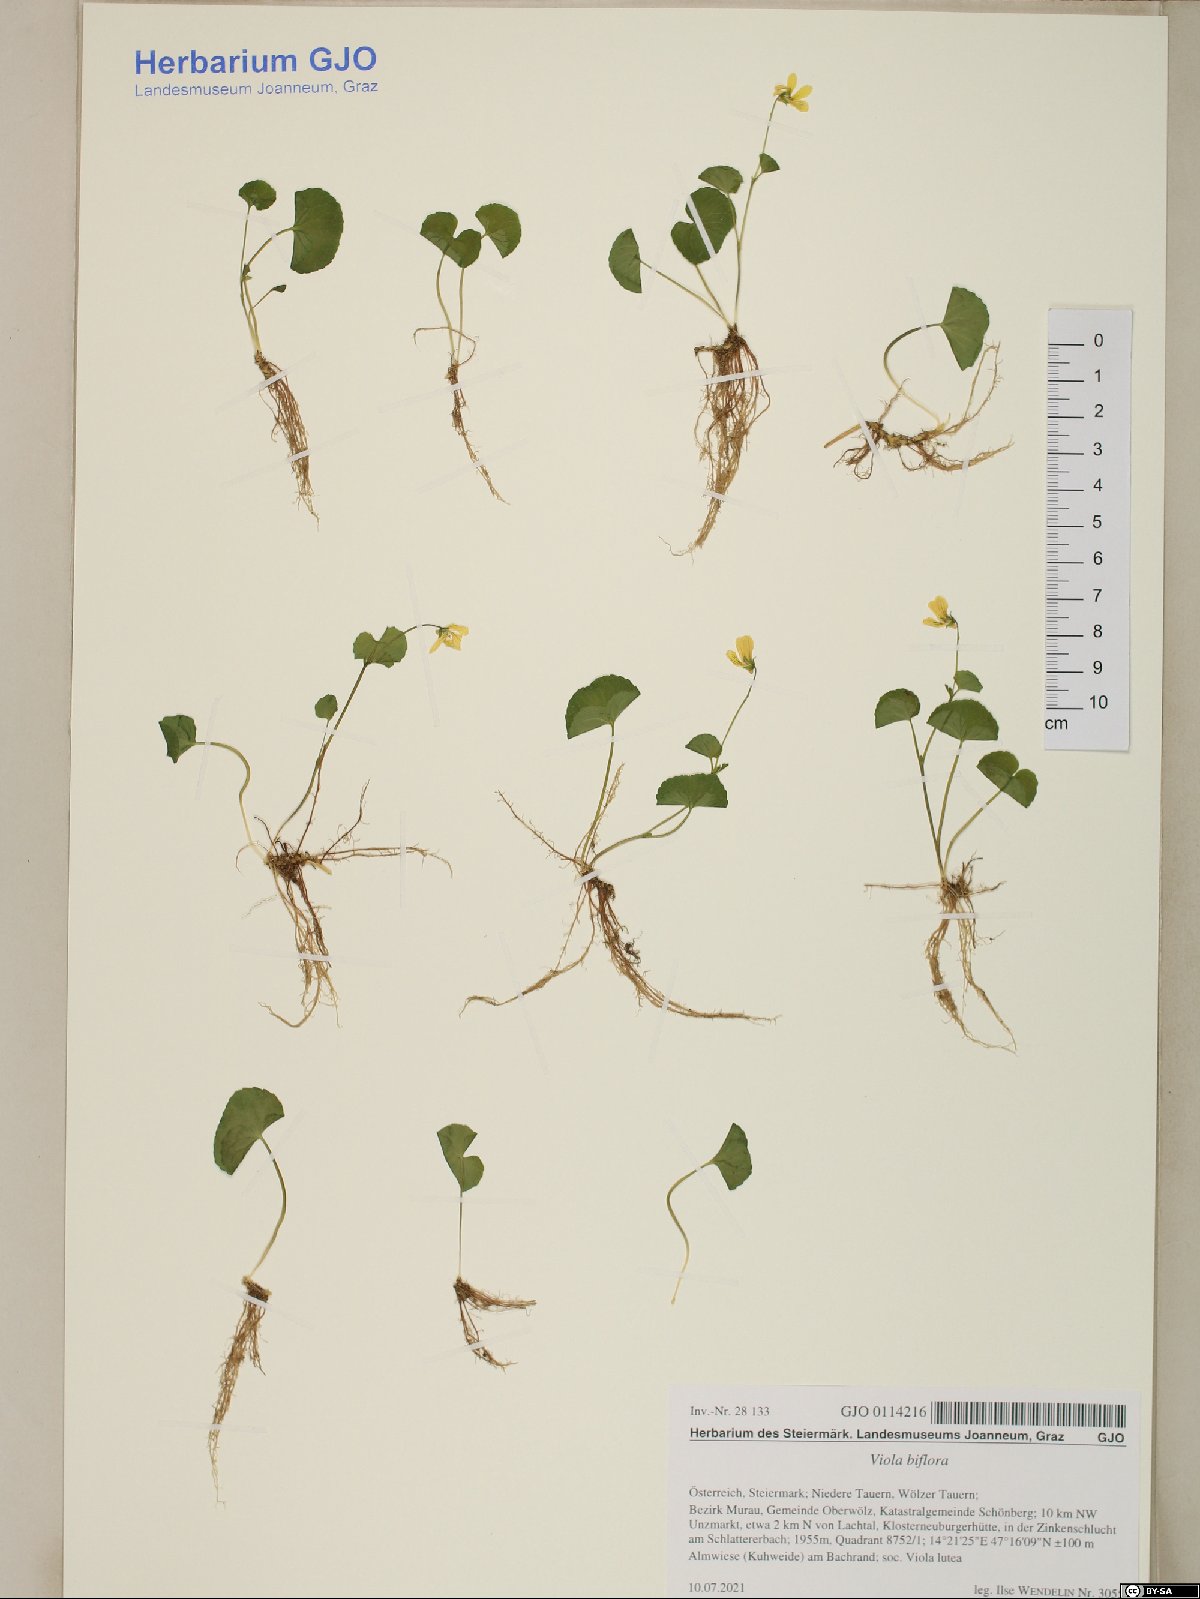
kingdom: Plantae
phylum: Tracheophyta
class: Magnoliopsida
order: Malpighiales
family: Violaceae
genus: Viola
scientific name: Viola biflora
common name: Alpine yellow violet
